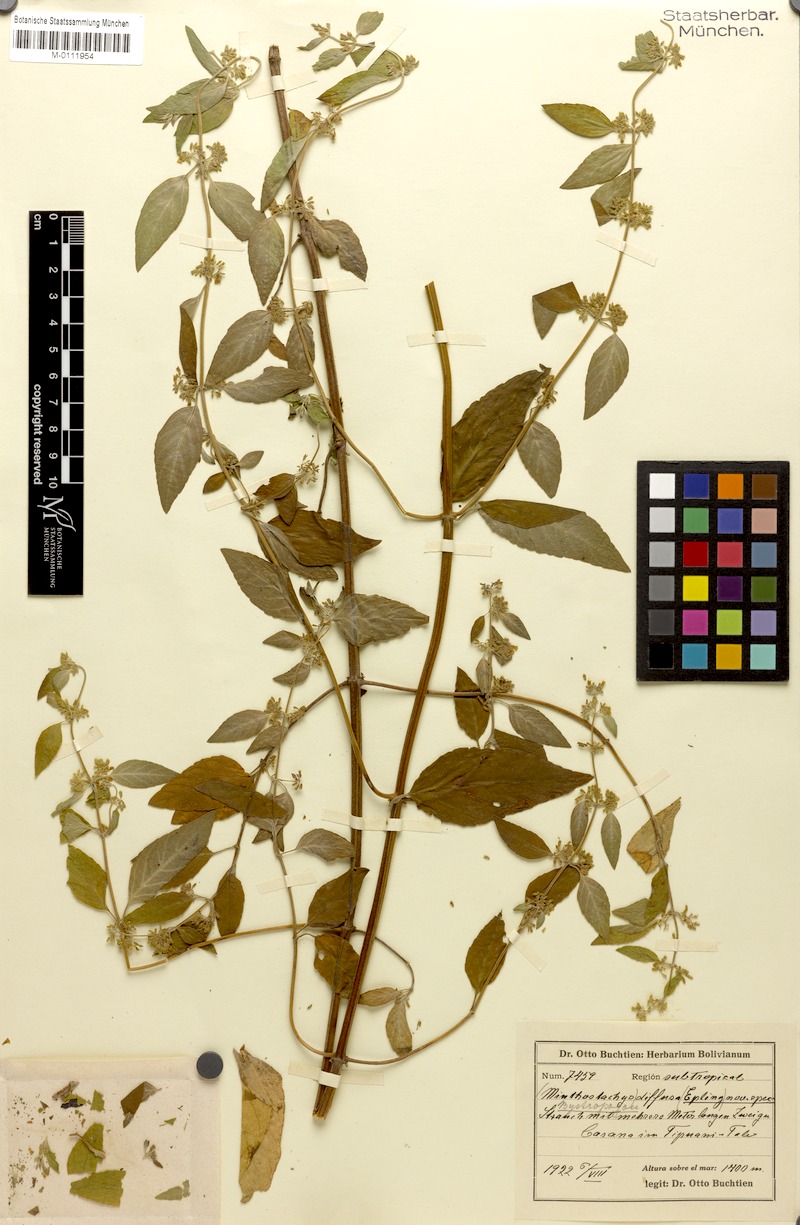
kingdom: Plantae
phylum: Tracheophyta
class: Magnoliopsida
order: Lamiales
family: Lamiaceae
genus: Minthostachys
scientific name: Minthostachys diffusa
